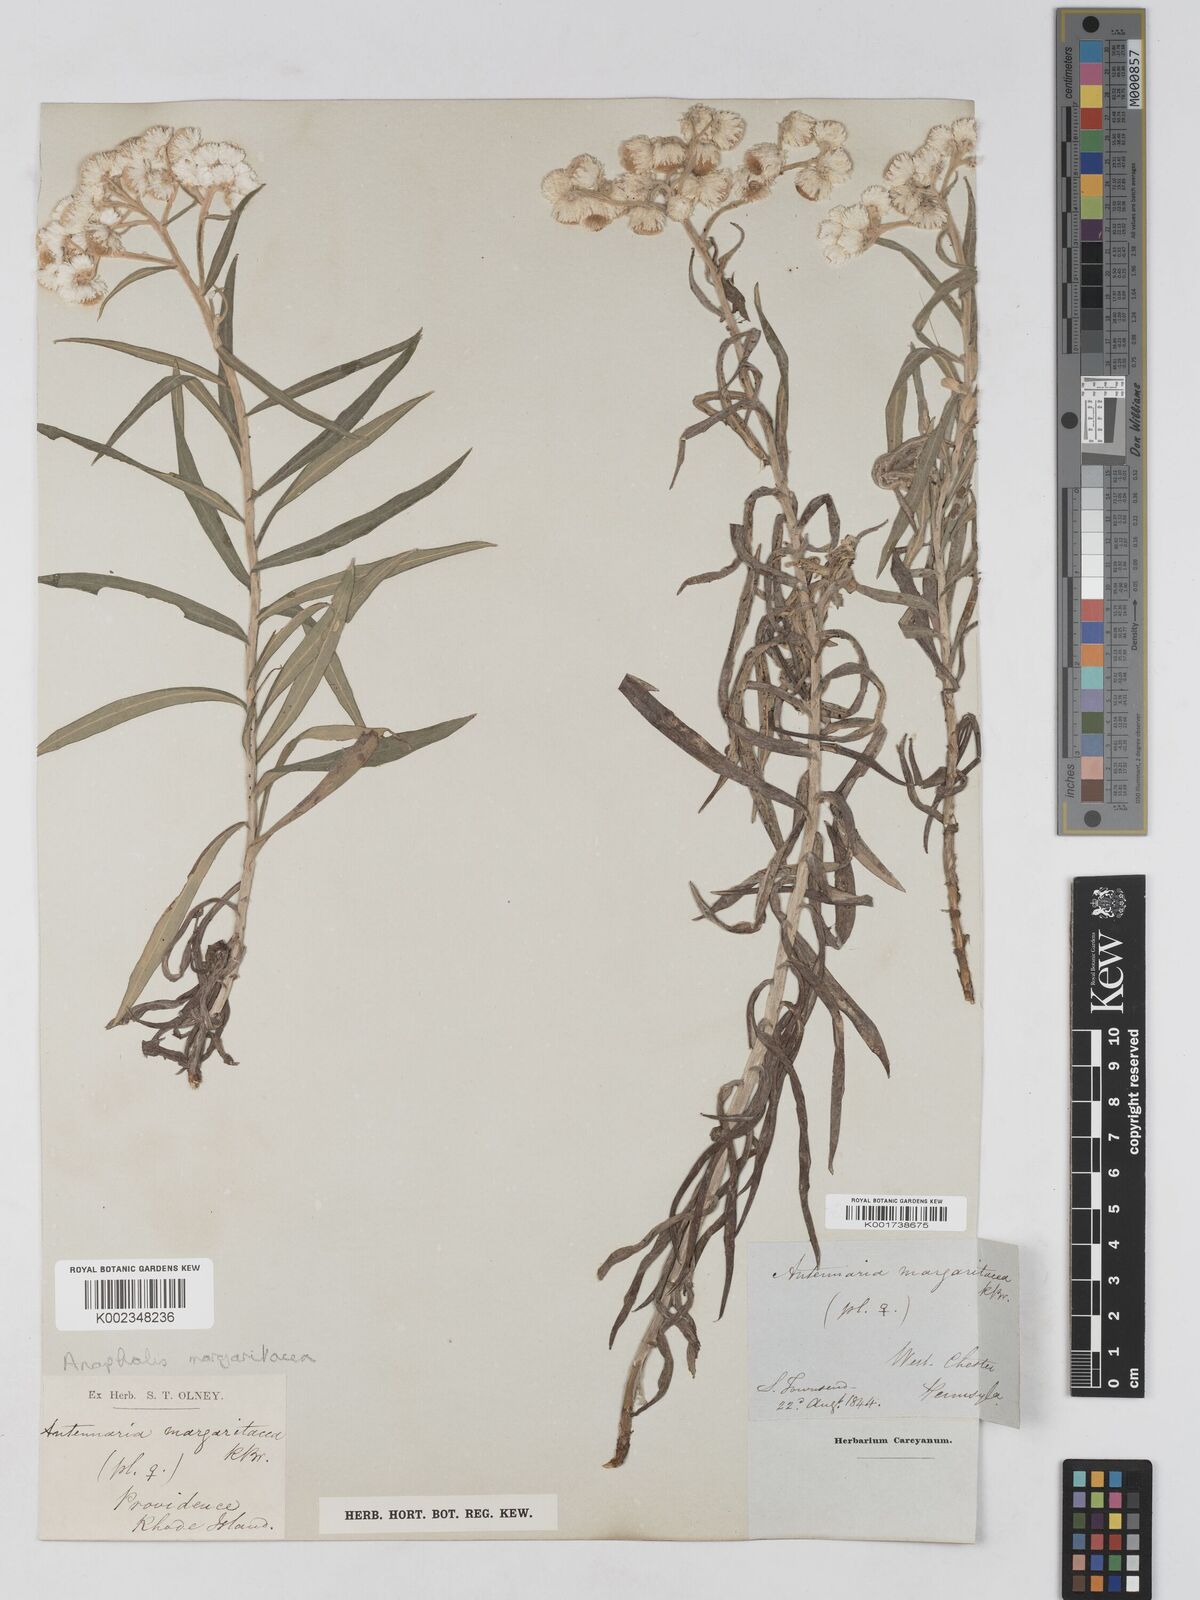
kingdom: Plantae
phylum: Tracheophyta
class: Magnoliopsida
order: Asterales
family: Asteraceae
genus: Anaphalis
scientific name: Anaphalis margaritacea
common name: Pearly everlasting
